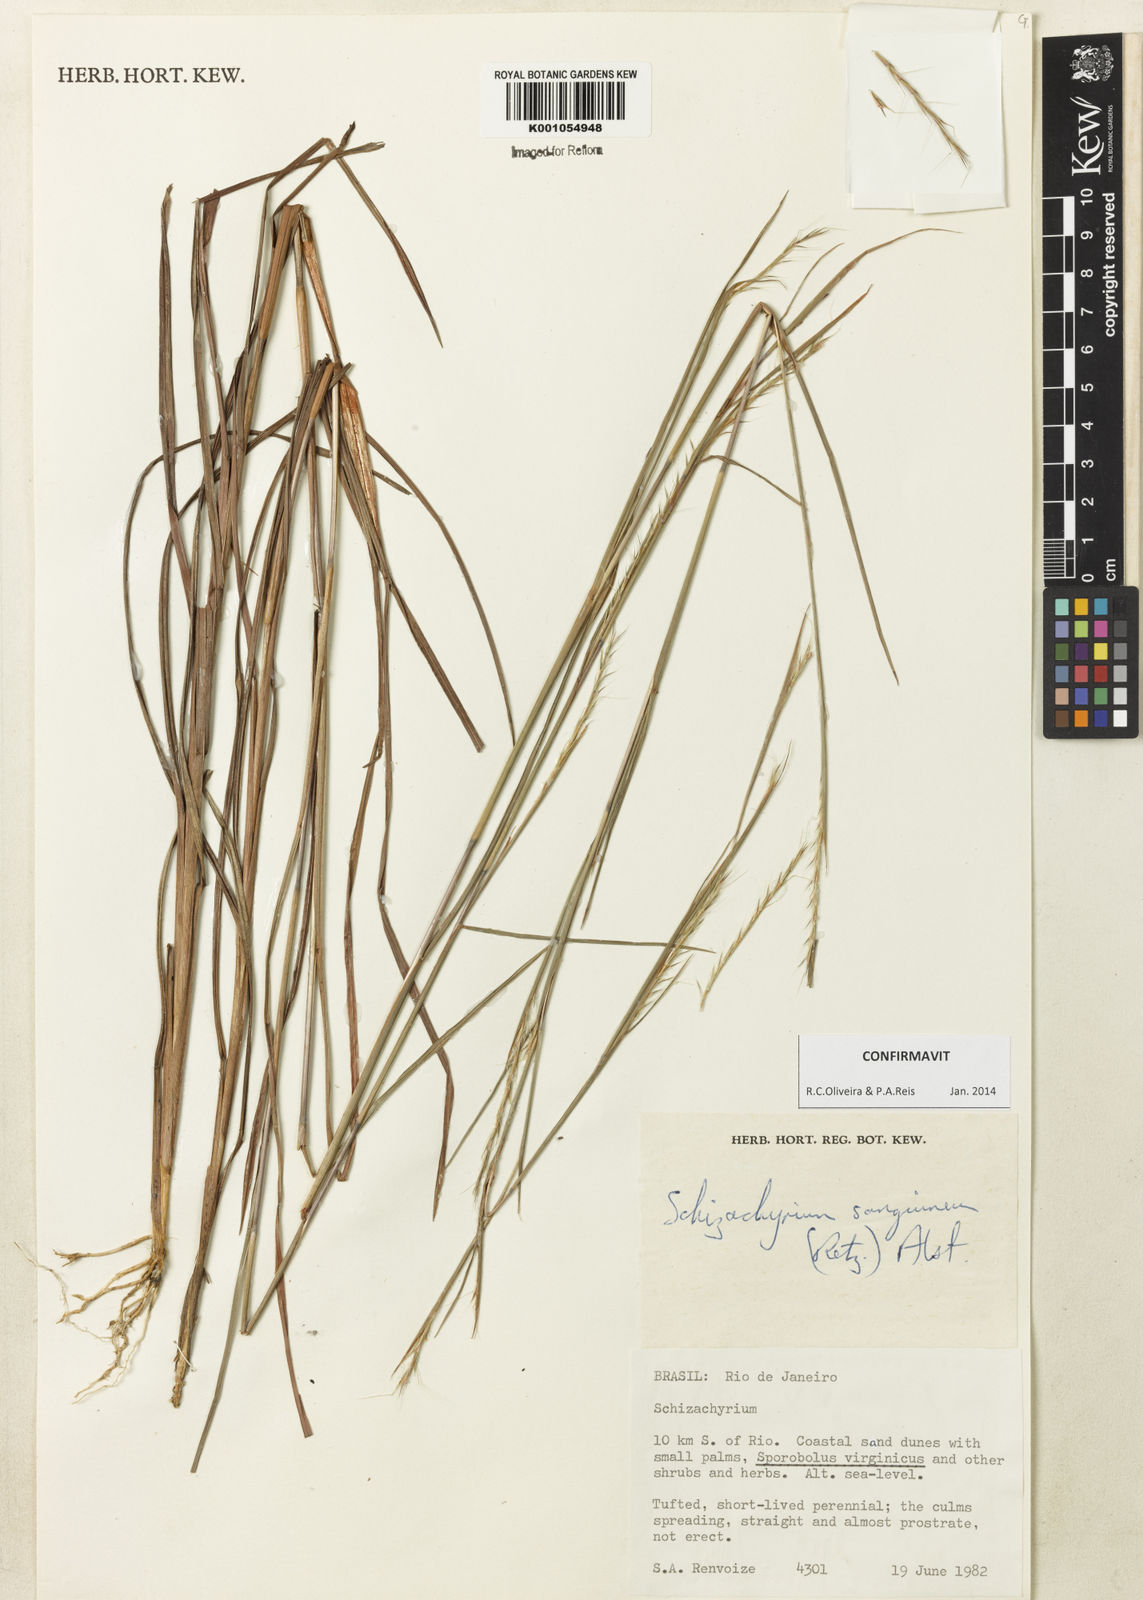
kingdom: Plantae
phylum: Tracheophyta
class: Liliopsida
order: Poales
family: Poaceae
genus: Schizachyrium
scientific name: Schizachyrium sanguineum
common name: Crimson bluestem
